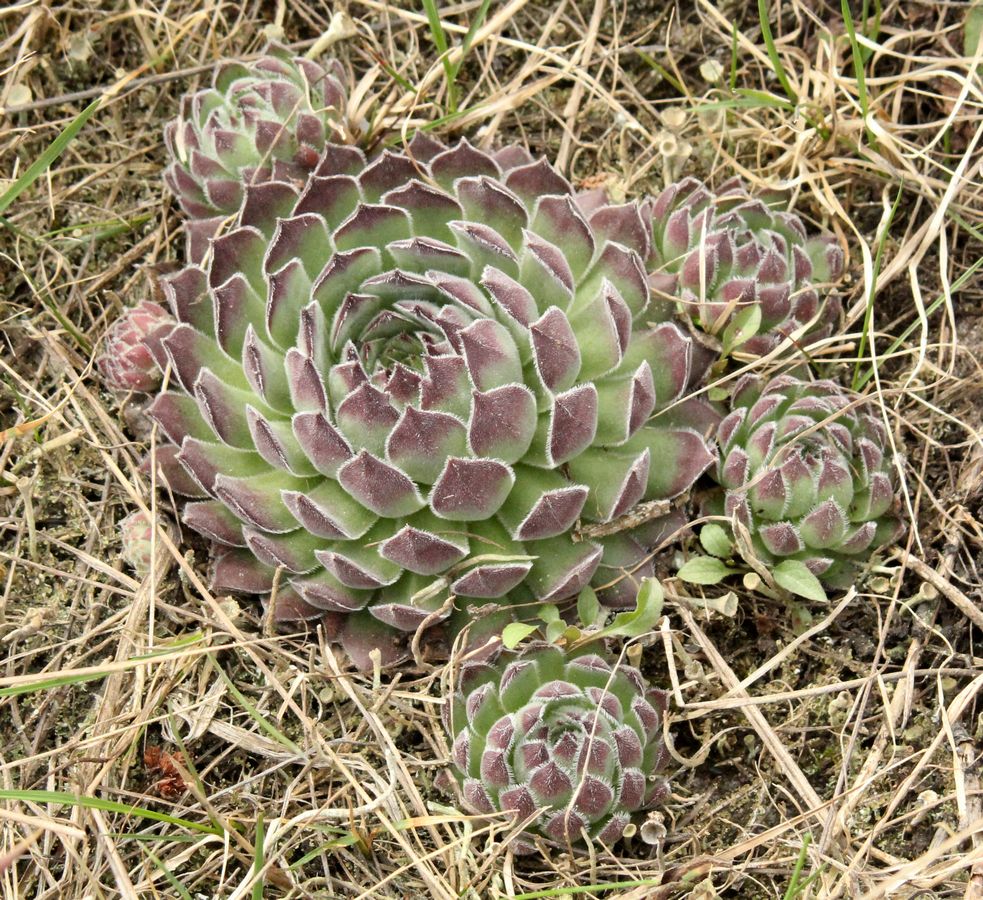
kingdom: Plantae
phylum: Tracheophyta
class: Magnoliopsida
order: Saxifragales
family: Crassulaceae
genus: Sempervivum
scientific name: Sempervivum ruthenicum
